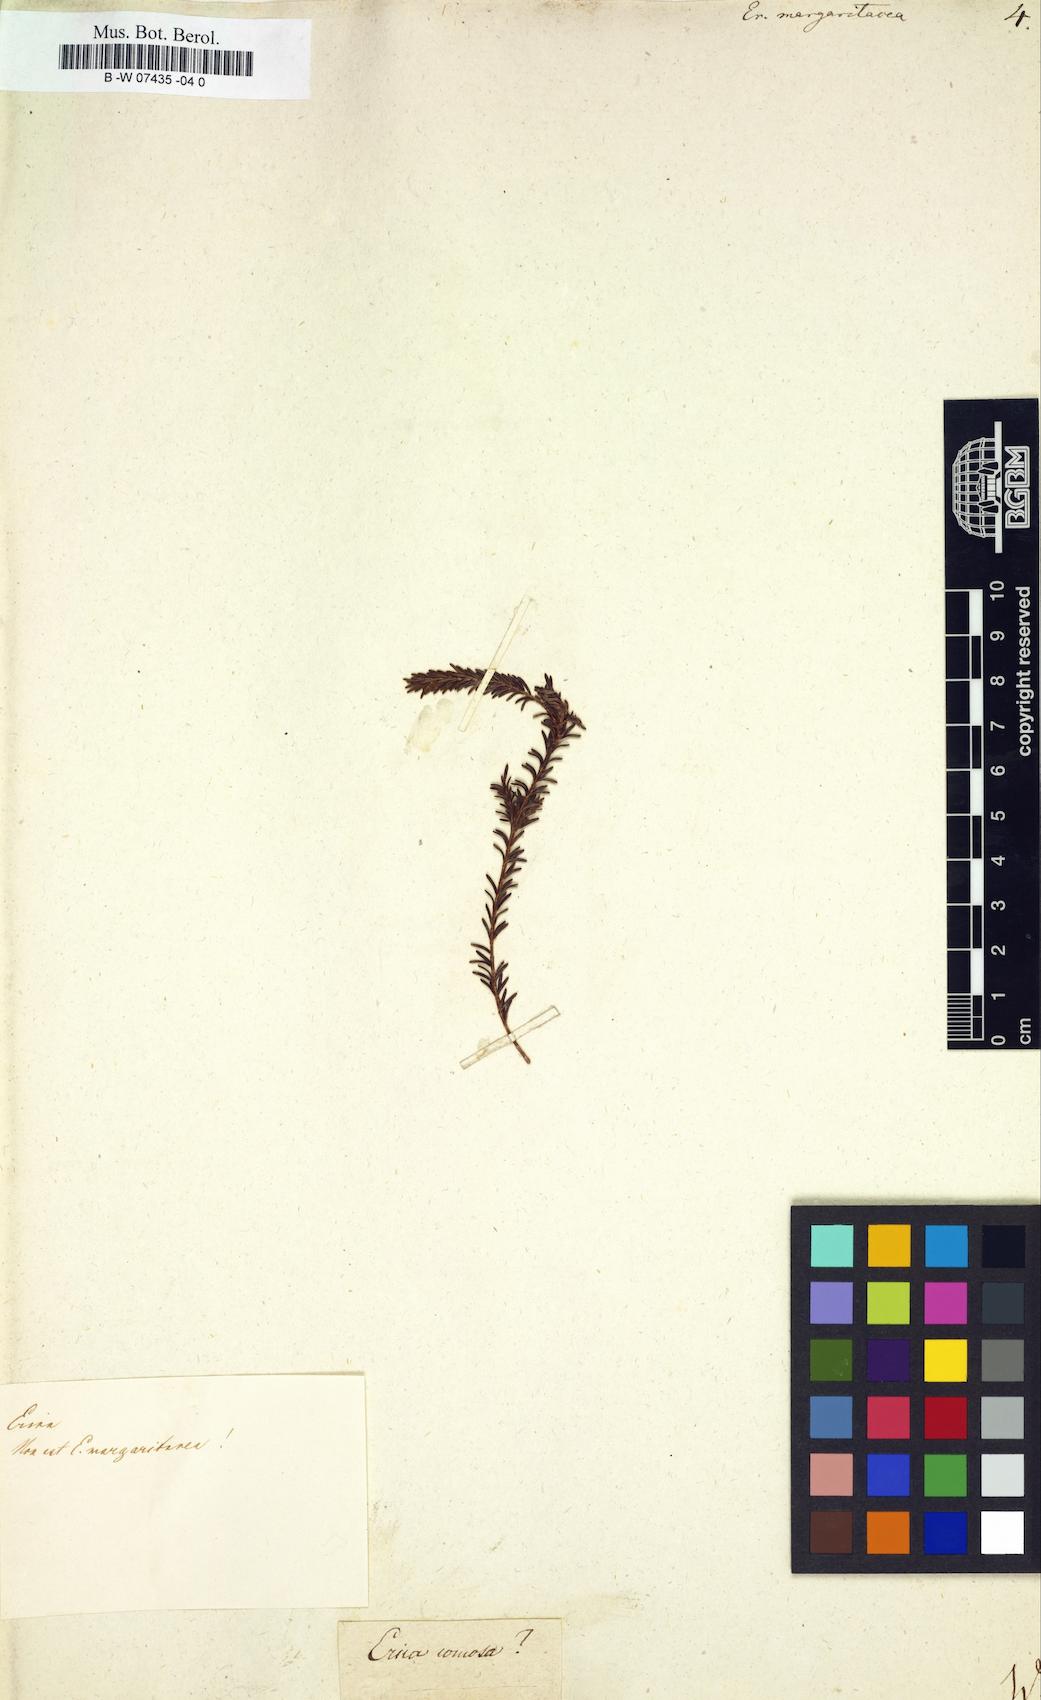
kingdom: Plantae
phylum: Tracheophyta
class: Magnoliopsida
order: Ericales
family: Ericaceae
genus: Erica
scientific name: Erica margaritacea
